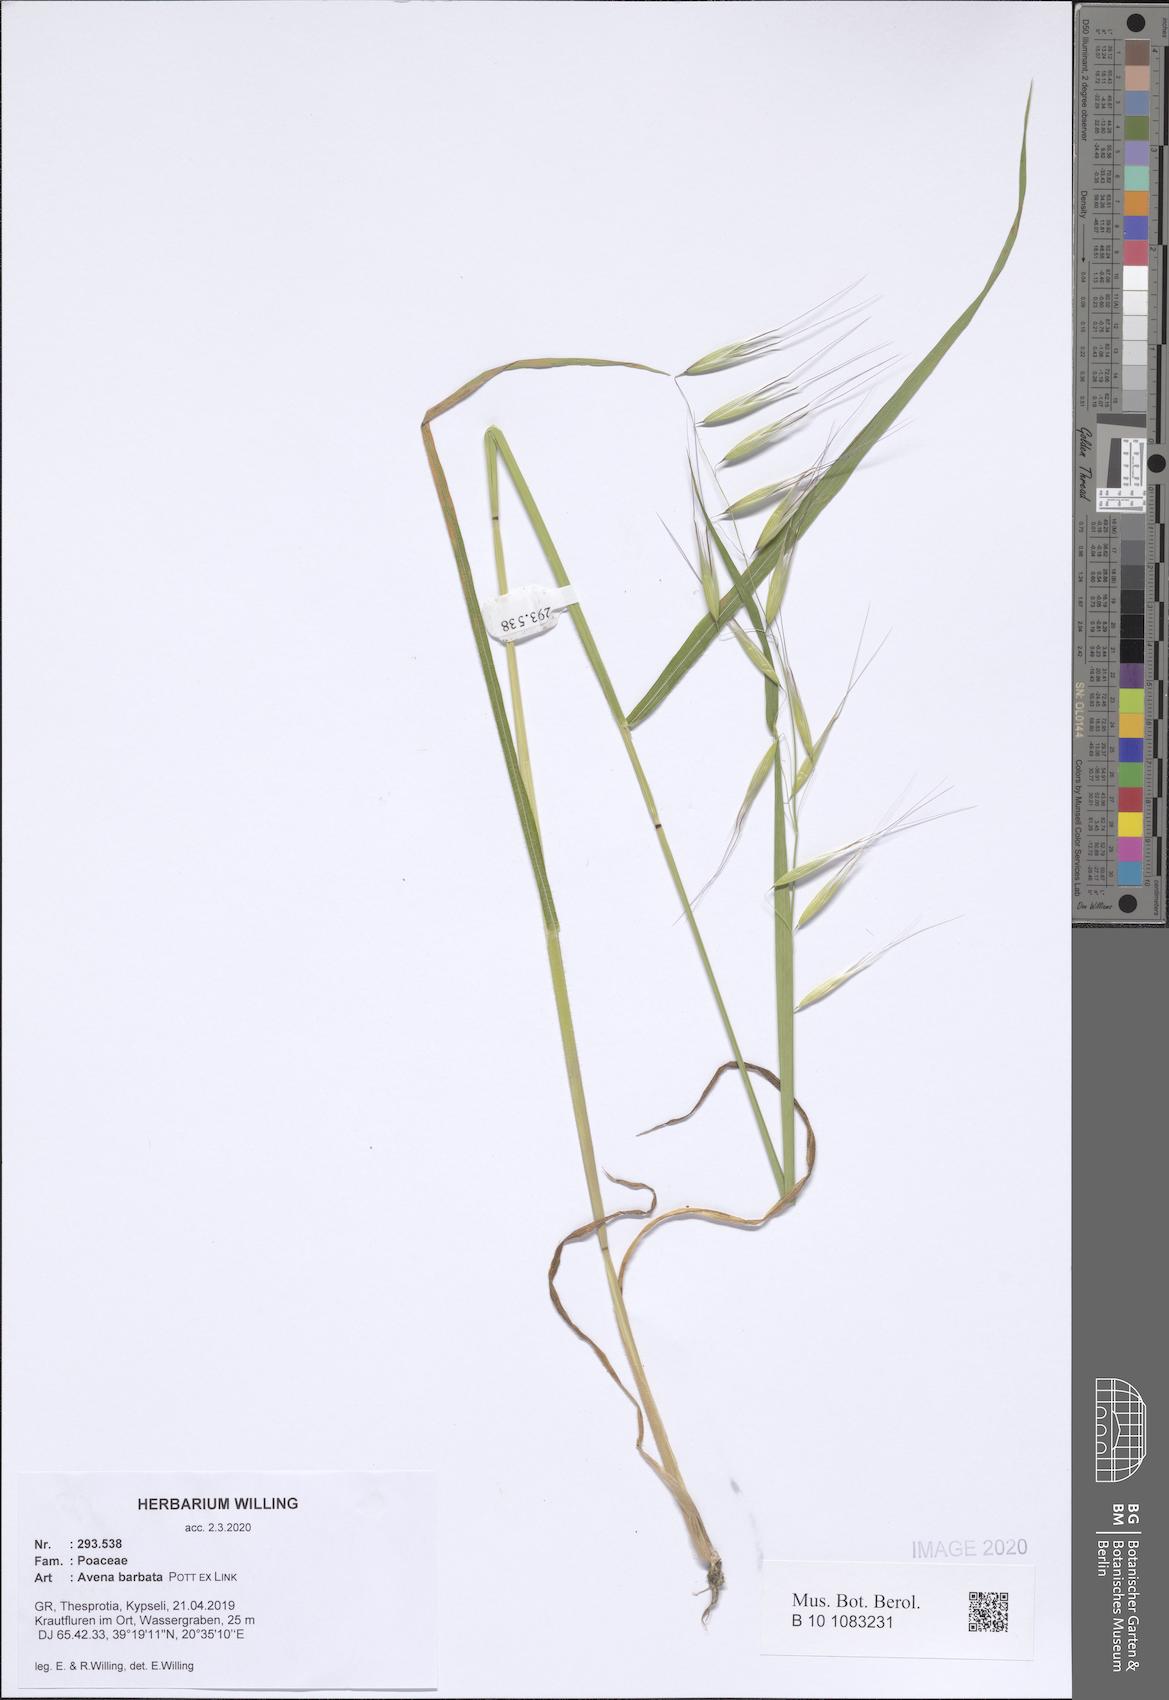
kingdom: Plantae
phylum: Tracheophyta
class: Liliopsida
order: Poales
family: Poaceae
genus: Avena
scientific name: Avena barbata
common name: Slender oat
